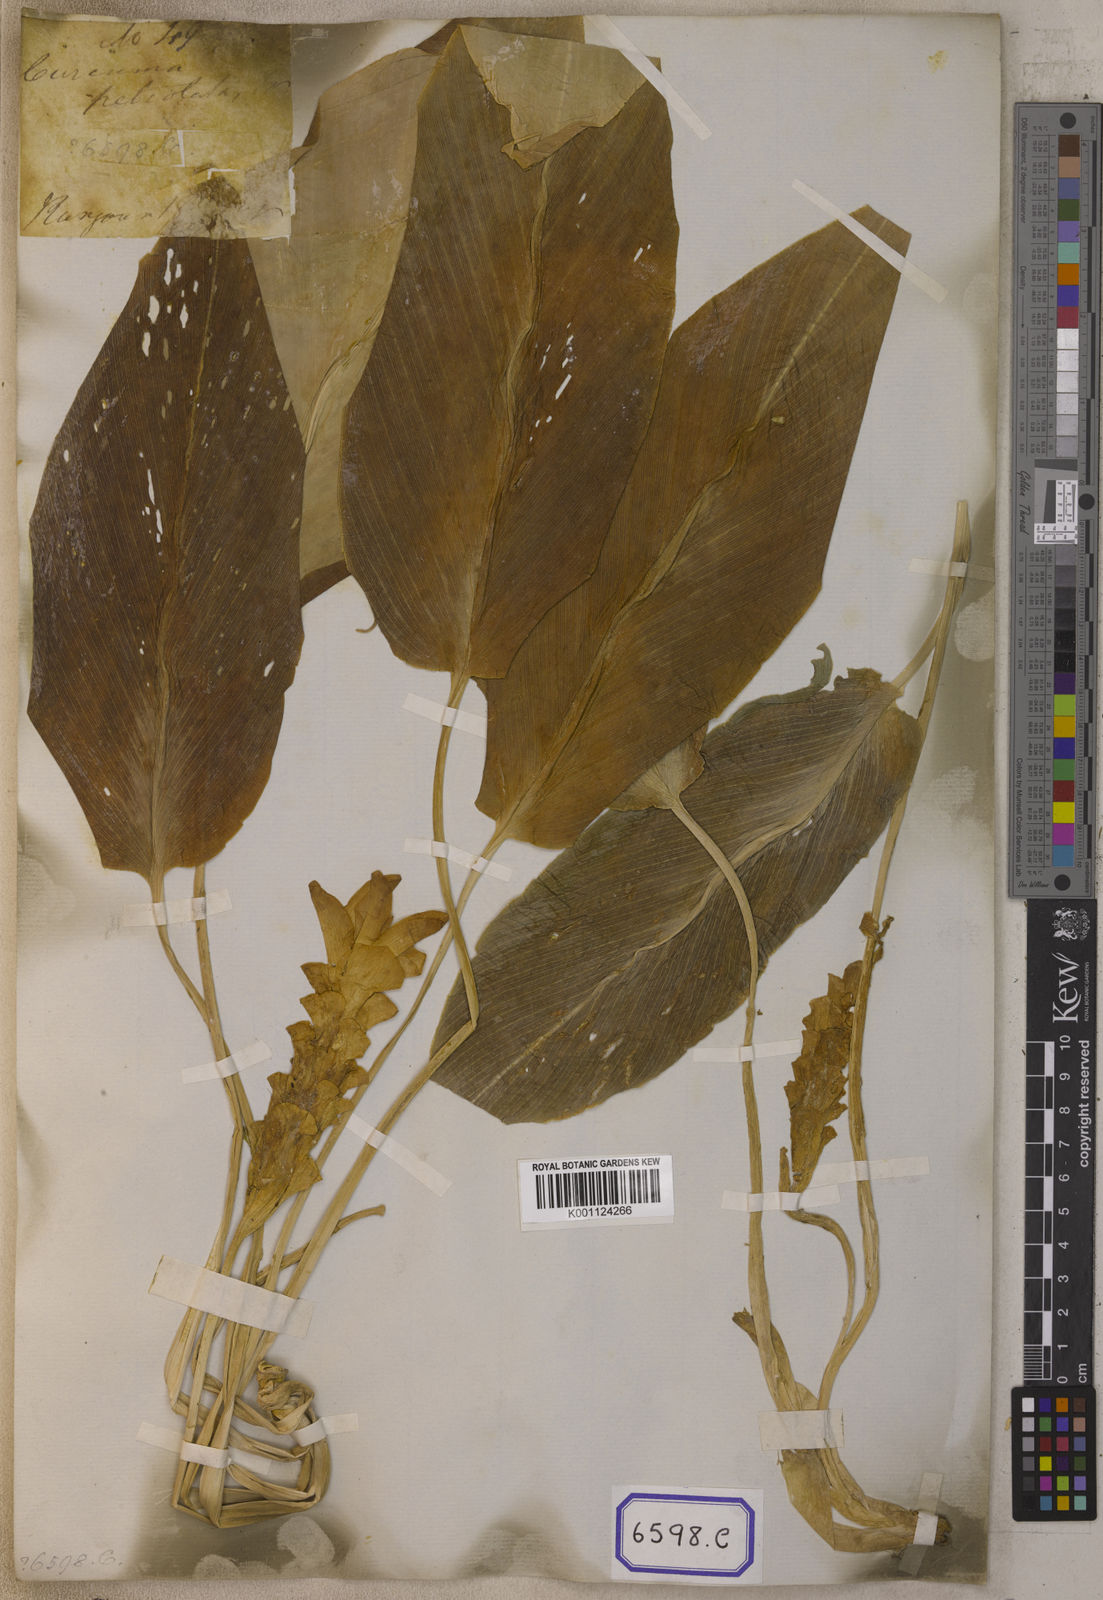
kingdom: Plantae
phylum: Tracheophyta
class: Liliopsida
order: Zingiberales
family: Zingiberaceae
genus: Curcuma
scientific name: Curcuma cordata
